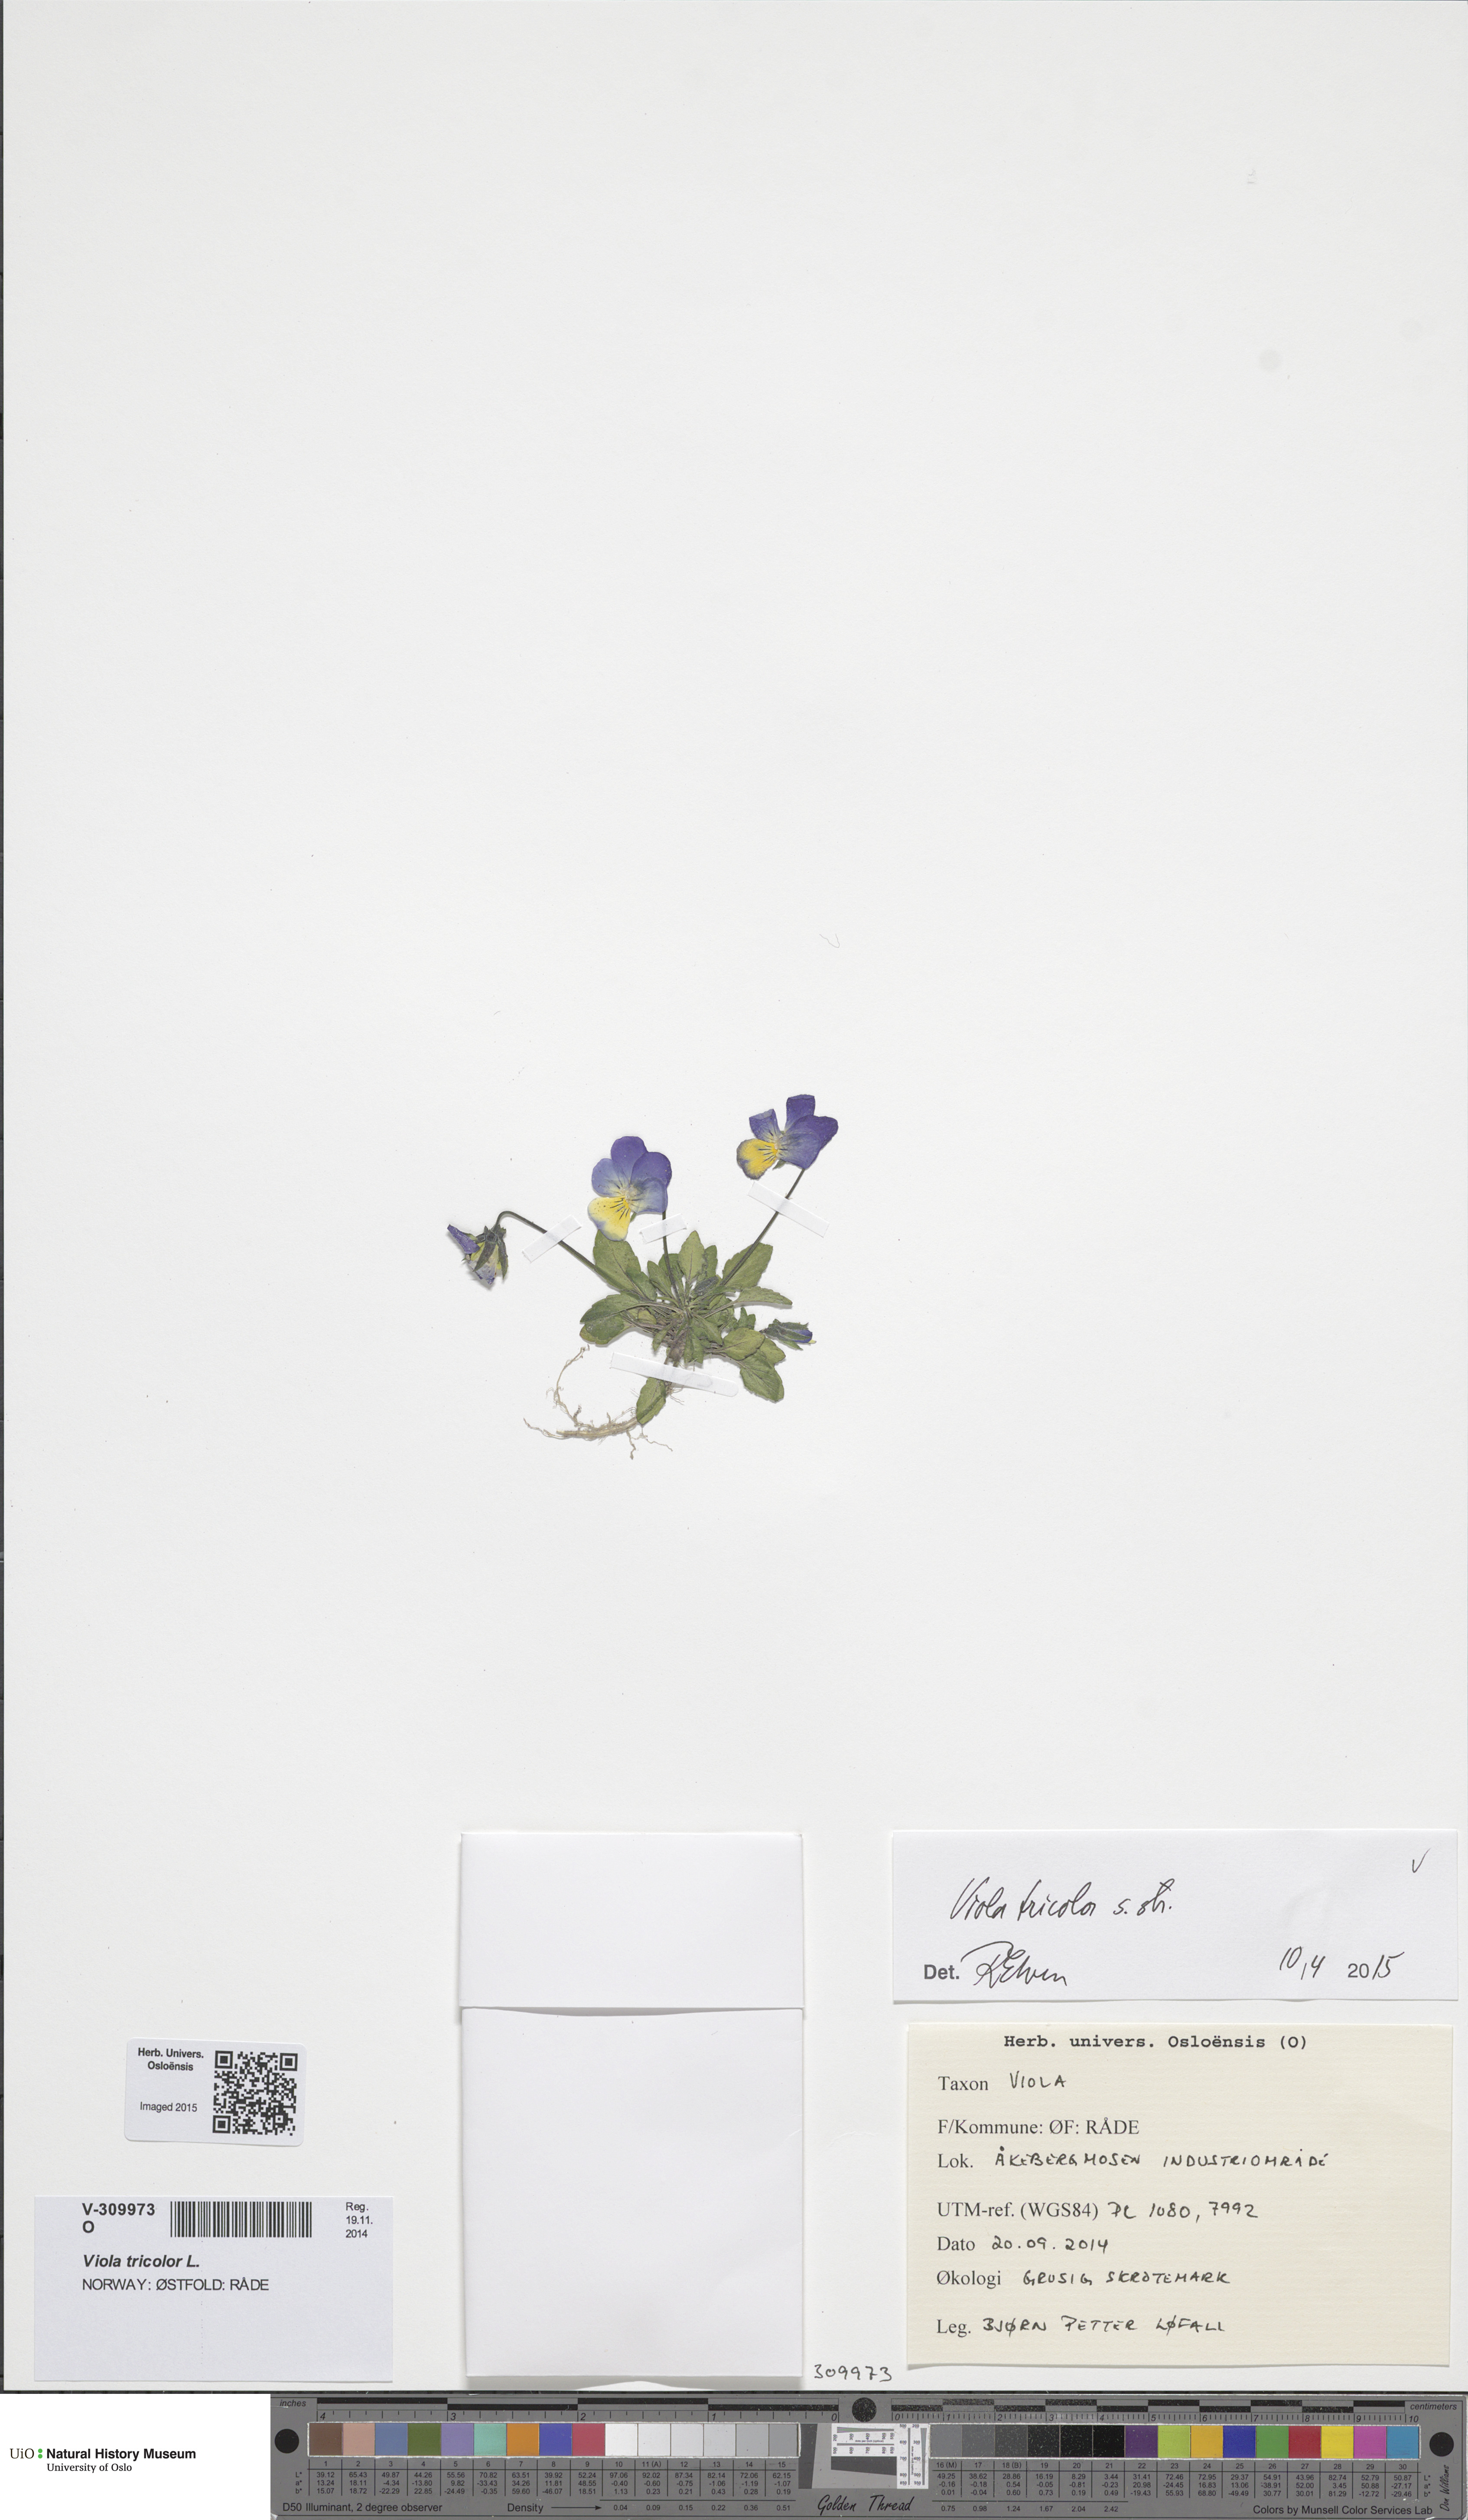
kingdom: Plantae
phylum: Tracheophyta
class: Magnoliopsida
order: Malpighiales
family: Violaceae
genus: Viola
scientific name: Viola tricolor
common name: Pansy
